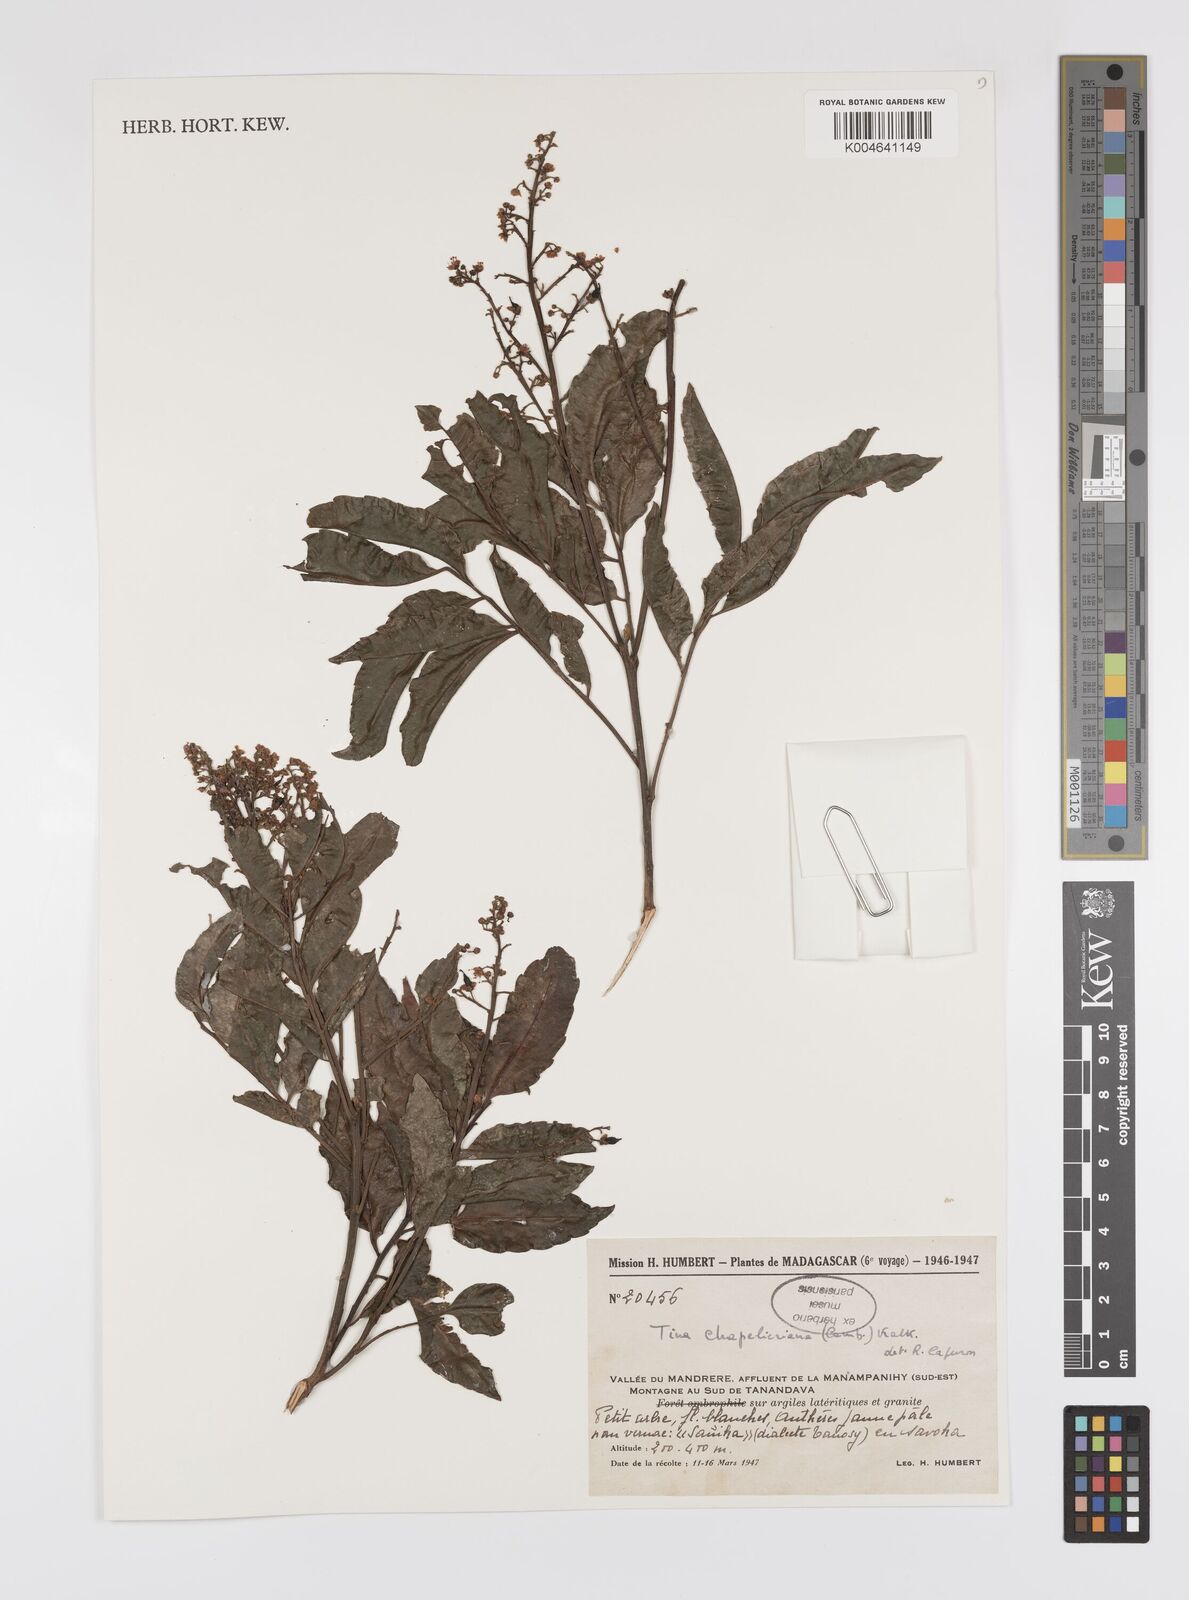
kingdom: Plantae
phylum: Tracheophyta
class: Magnoliopsida
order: Sapindales
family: Sapindaceae
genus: Tina
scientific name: Tina chapelieriana
